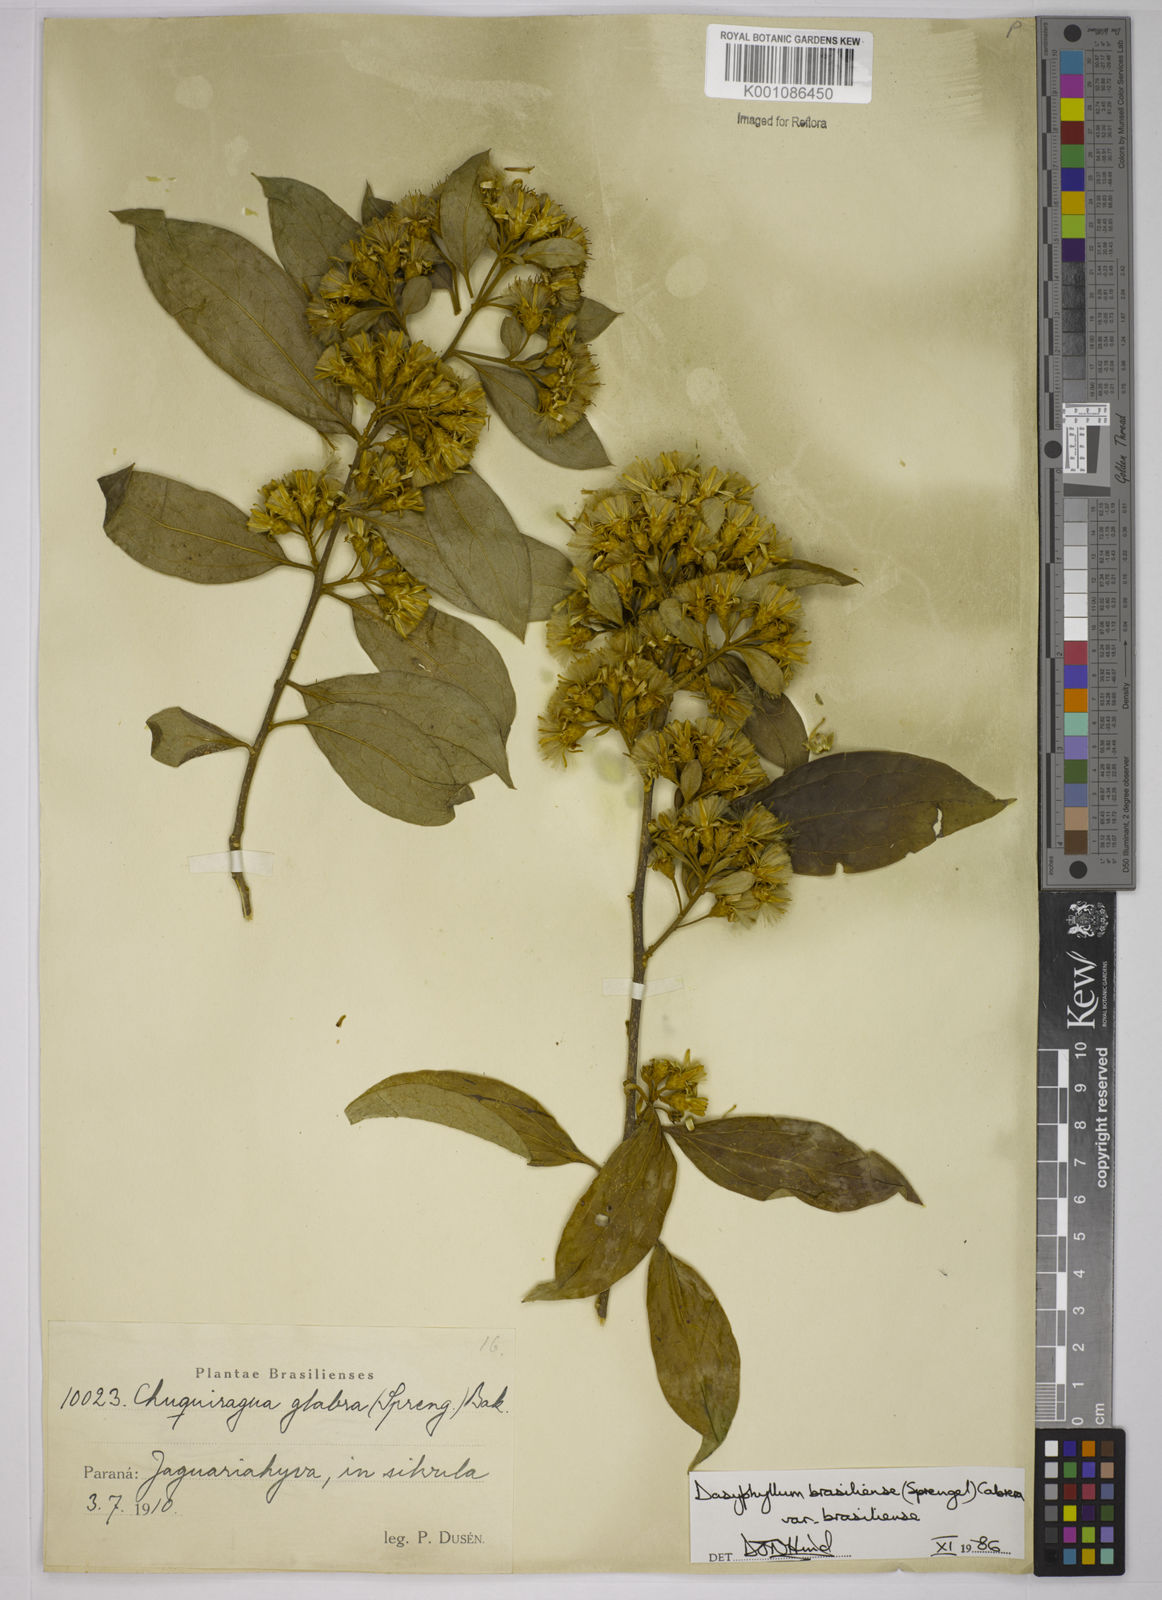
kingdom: Plantae
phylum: Tracheophyta
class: Magnoliopsida
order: Asterales
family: Asteraceae
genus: Dasyphyllum
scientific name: Dasyphyllum brasiliense
